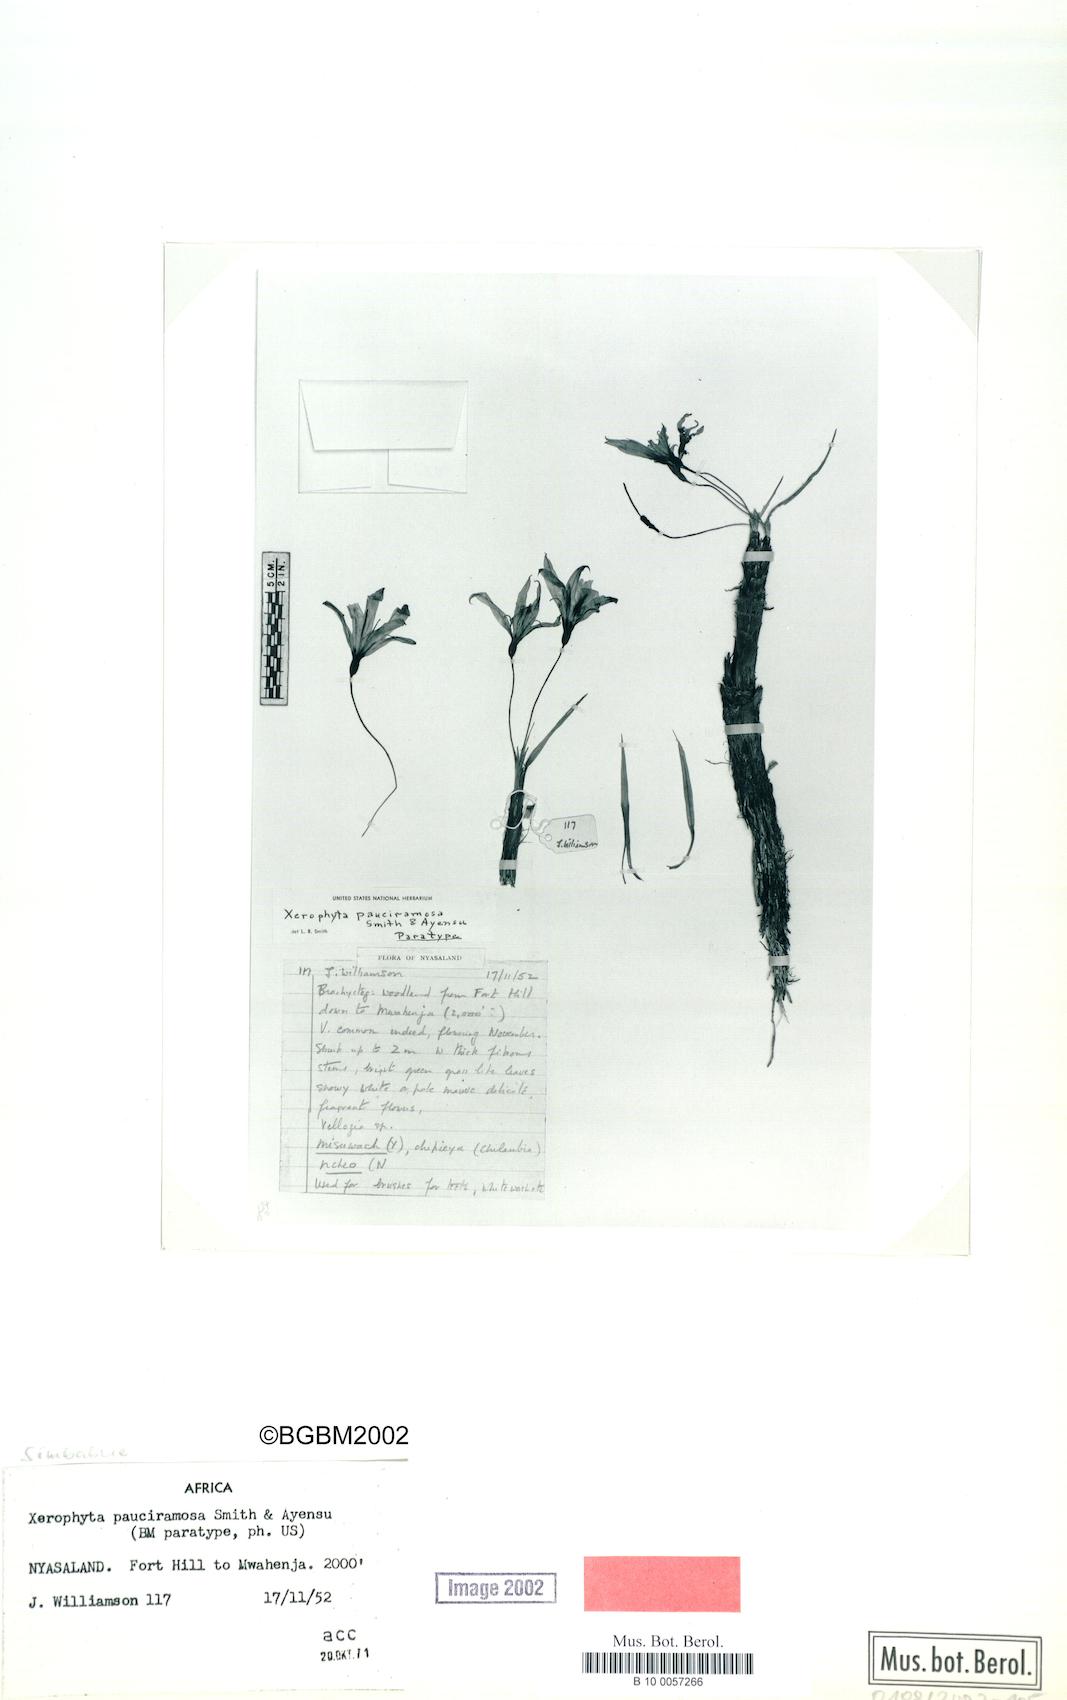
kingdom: Plantae
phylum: Tracheophyta
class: Liliopsida
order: Pandanales
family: Velloziaceae
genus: Xerophyta
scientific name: Xerophyta pauciramosa
